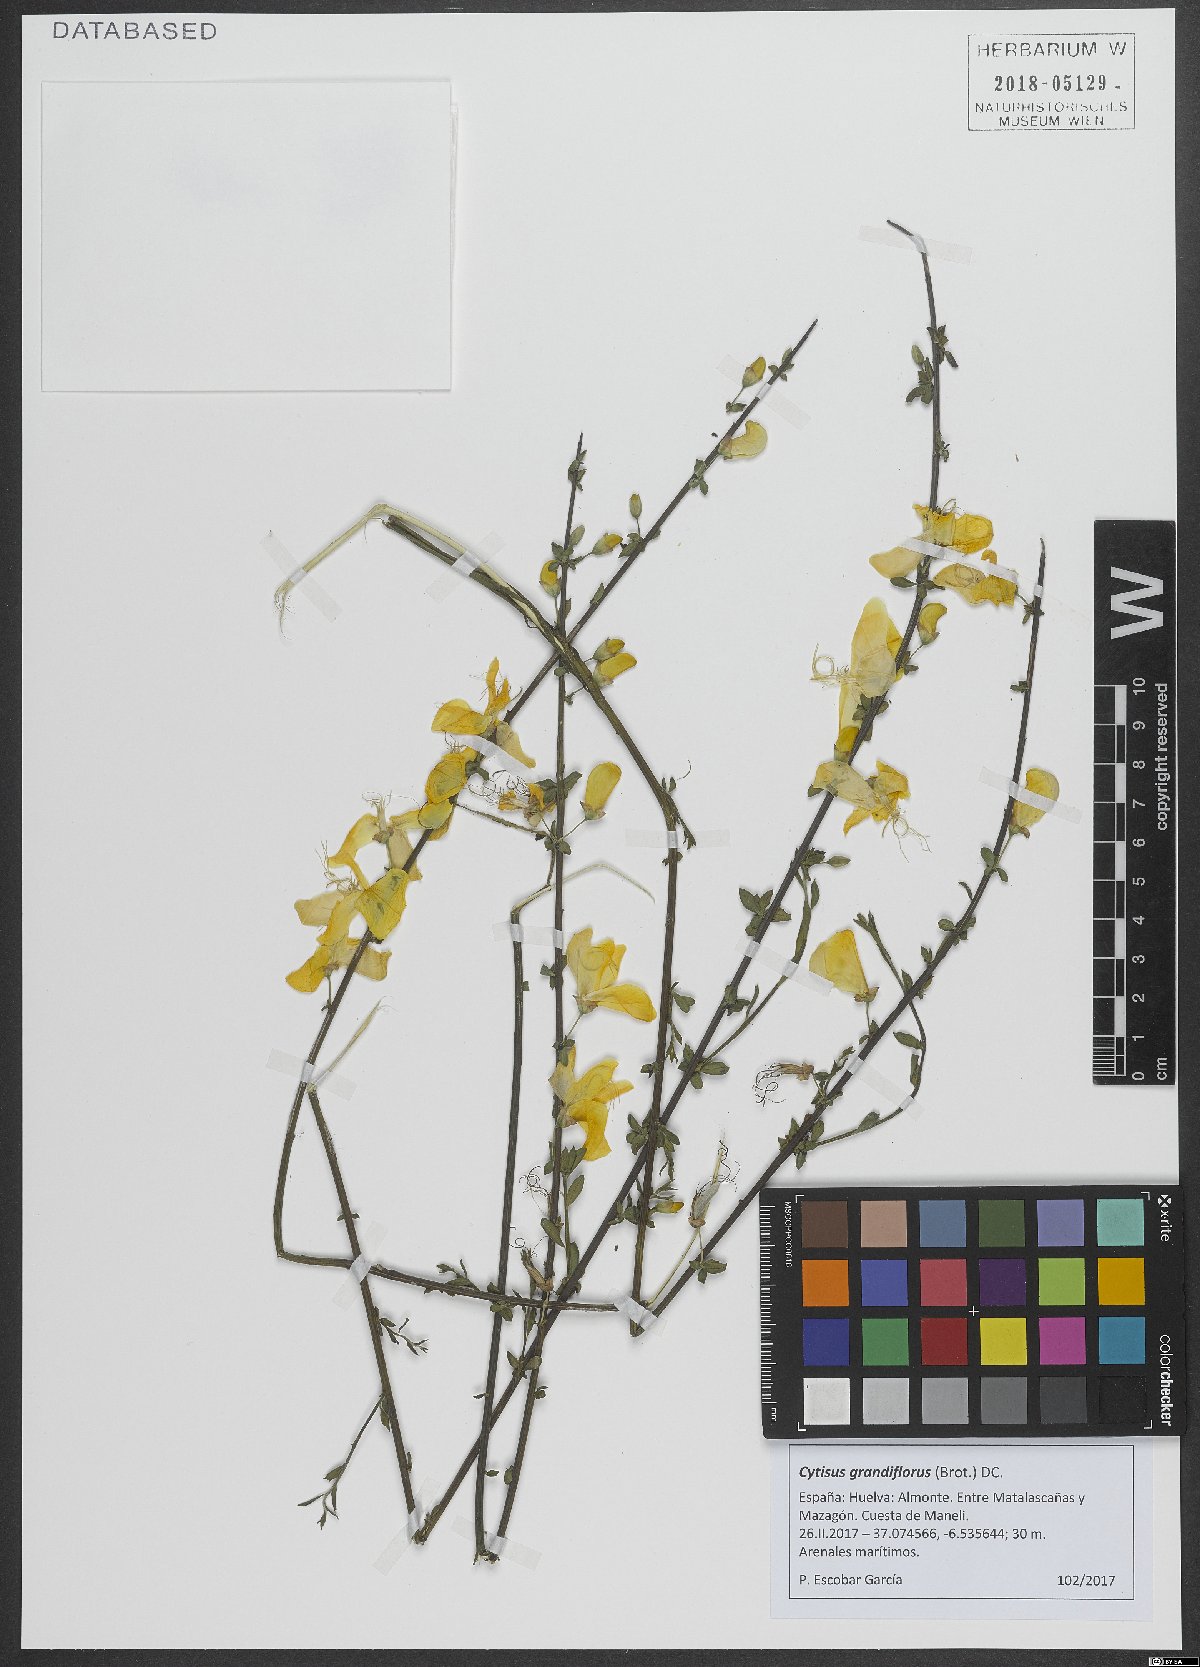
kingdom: Plantae
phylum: Tracheophyta
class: Magnoliopsida
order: Fabales
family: Fabaceae
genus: Cytisus
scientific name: Cytisus grandiflorus
